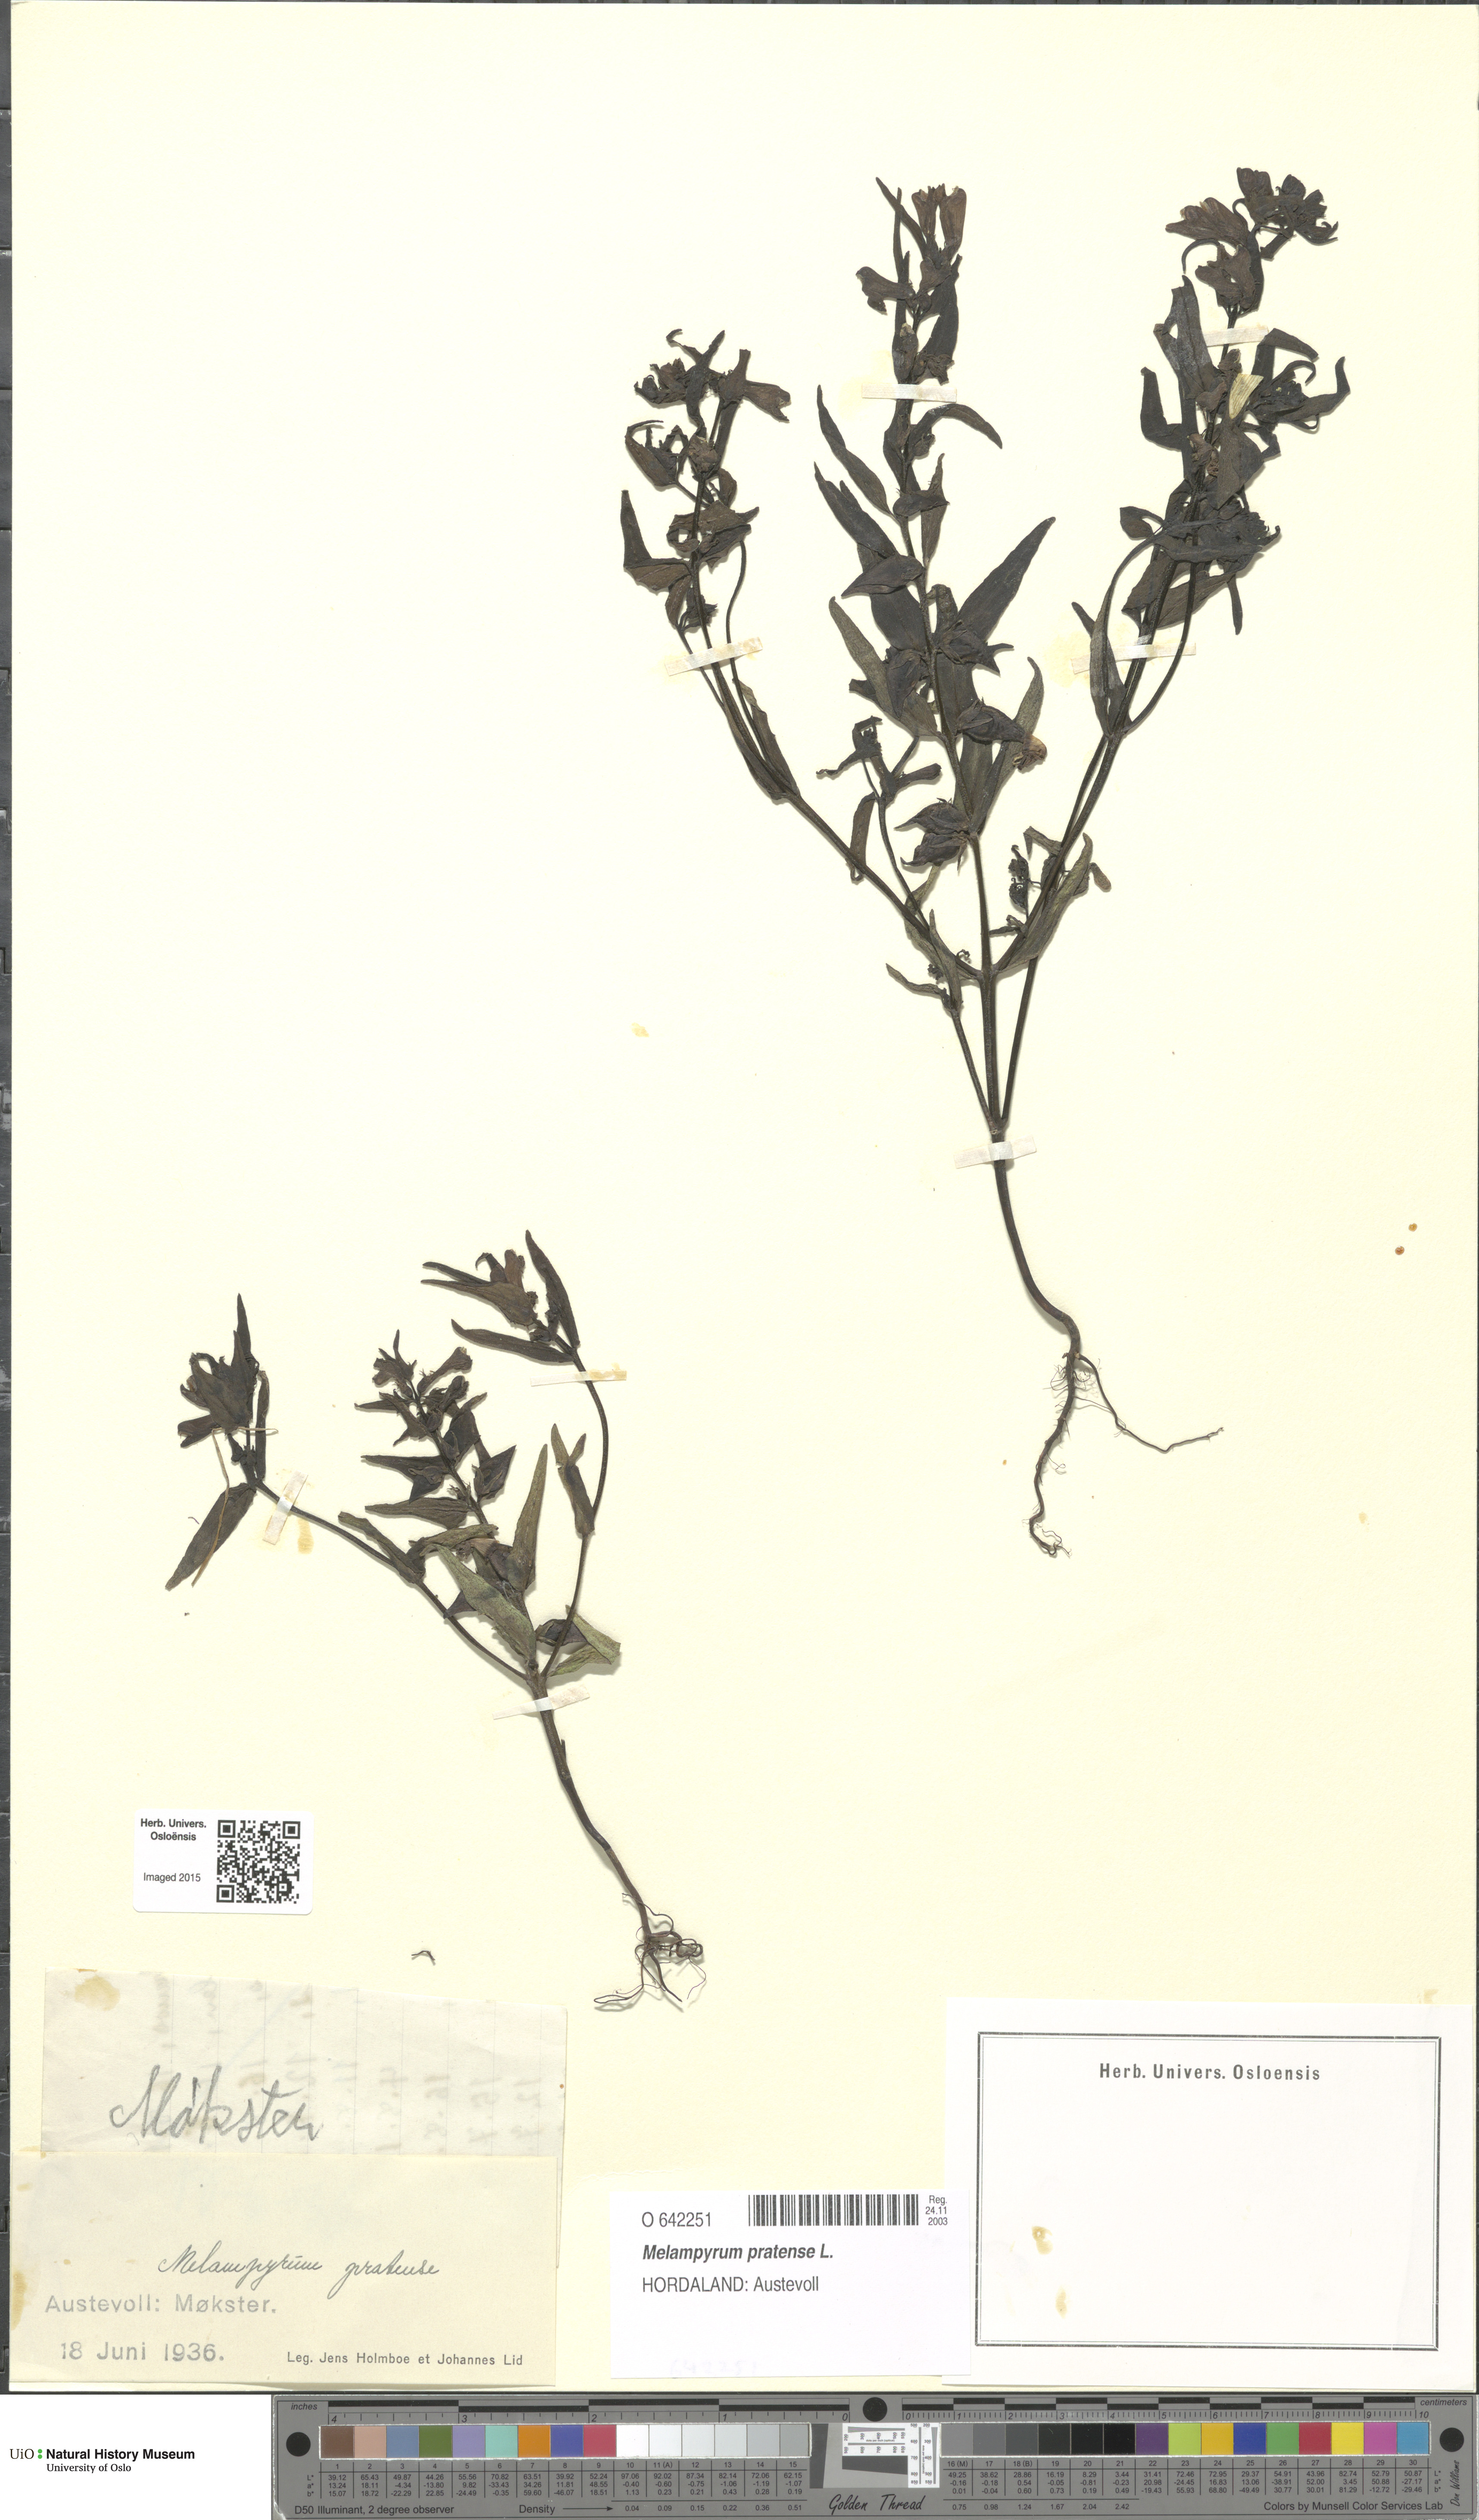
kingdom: Plantae
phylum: Tracheophyta
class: Magnoliopsida
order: Lamiales
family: Orobanchaceae
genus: Melampyrum
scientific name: Melampyrum pratense
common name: Common cow-wheat
